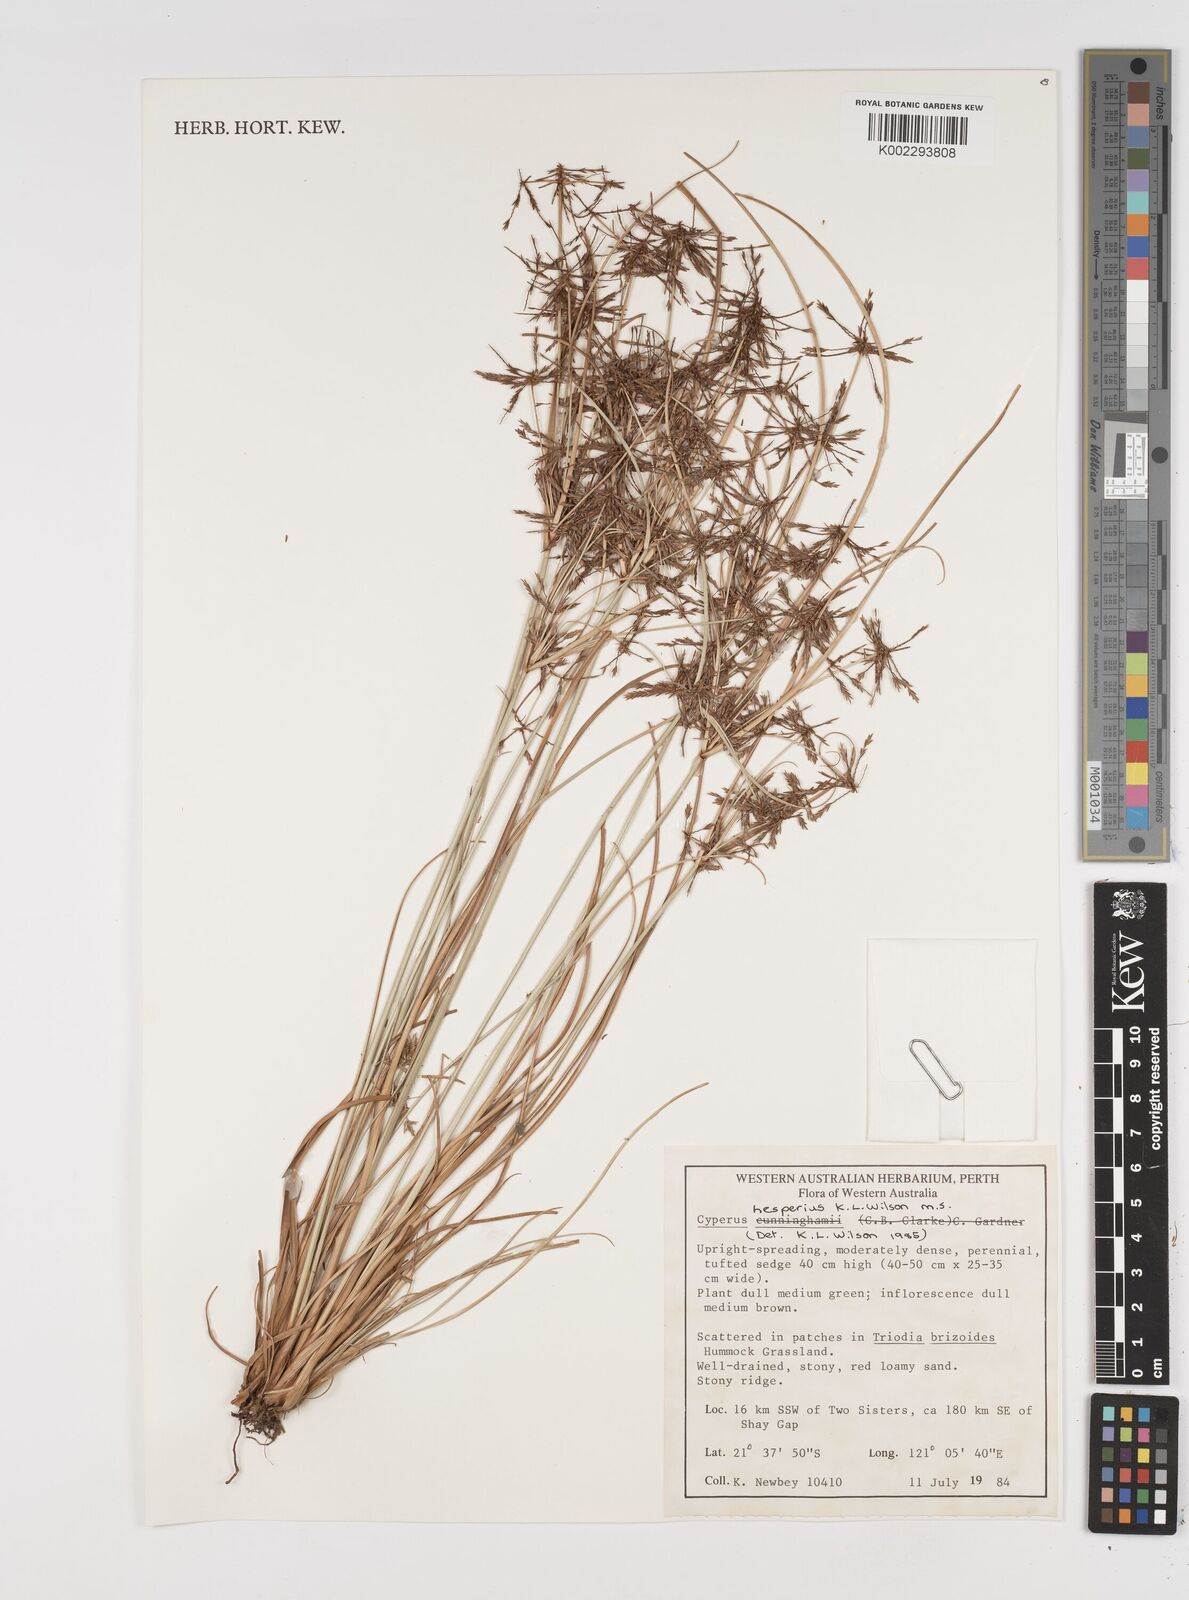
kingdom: Plantae
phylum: Tracheophyta
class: Liliopsida
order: Poales
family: Cyperaceae
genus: Cyperus
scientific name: Cyperus hesperius
